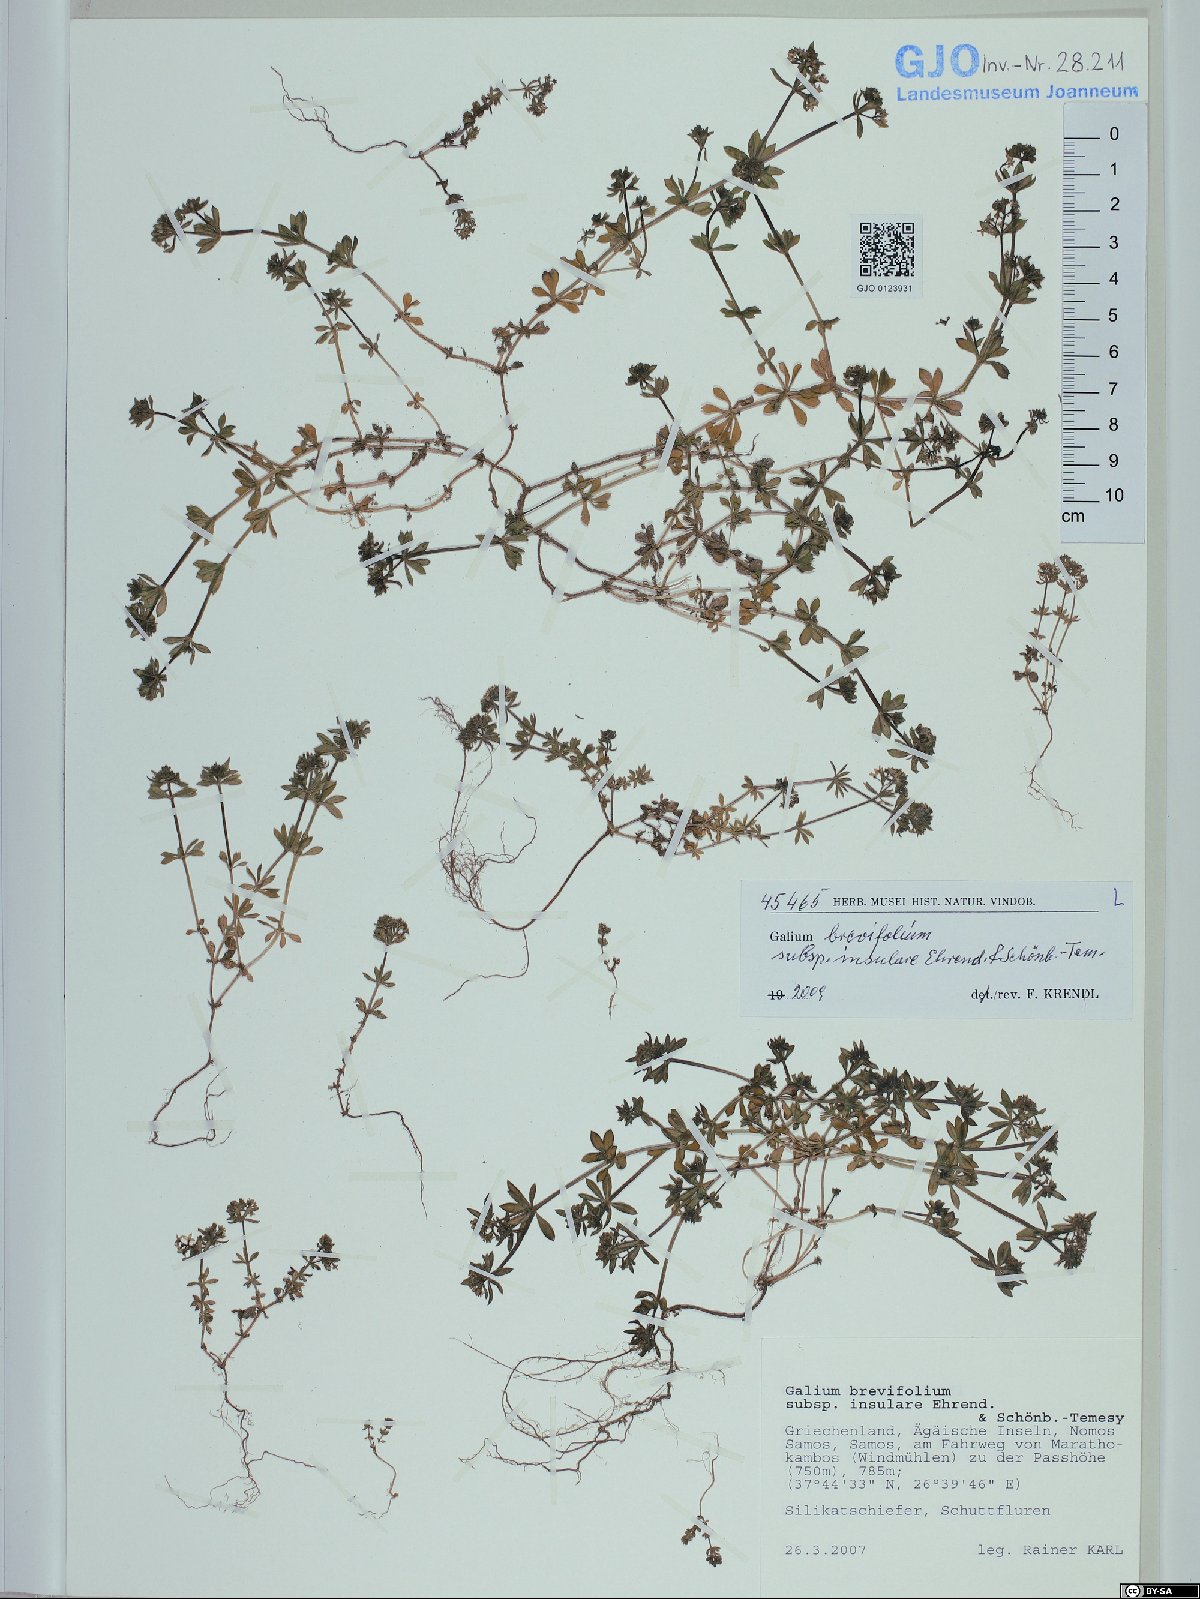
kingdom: Plantae
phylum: Tracheophyta
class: Magnoliopsida
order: Gentianales
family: Rubiaceae
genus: Galium
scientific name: Galium brevifolium
